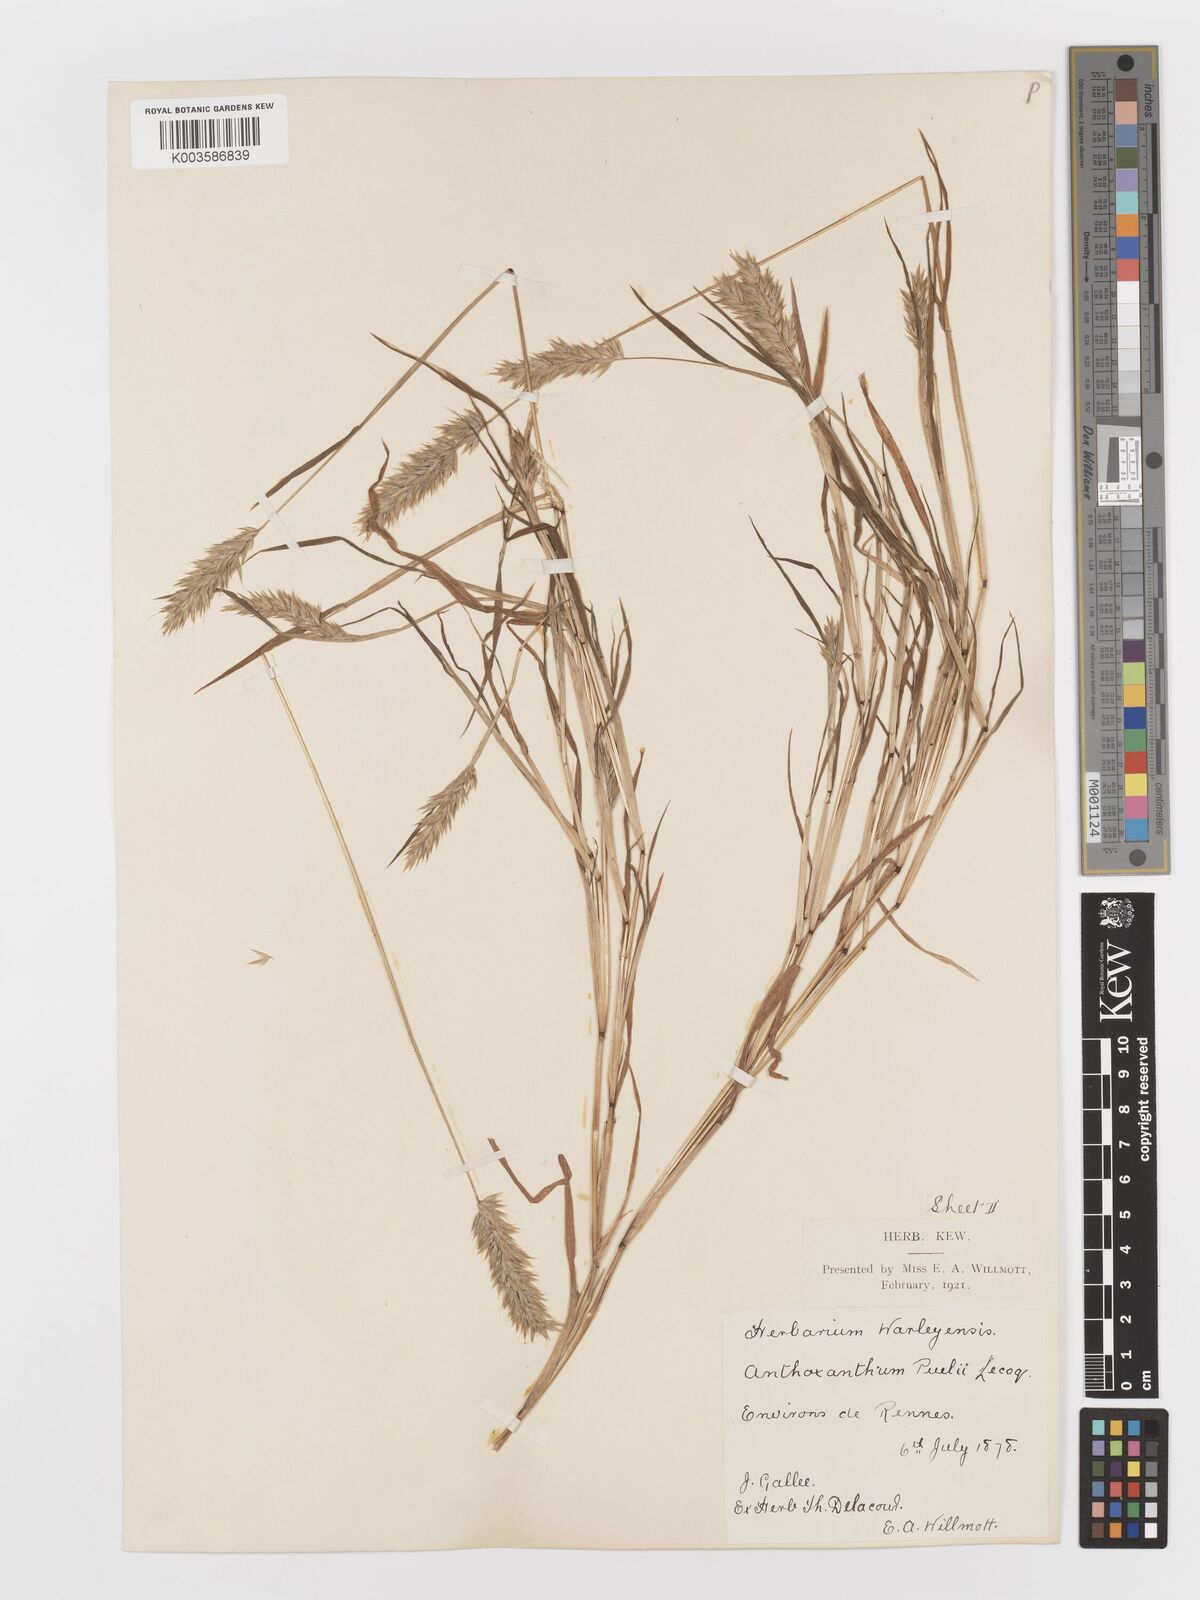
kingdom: Plantae
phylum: Tracheophyta
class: Liliopsida
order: Poales
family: Poaceae
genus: Anthoxanthum
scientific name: Anthoxanthum
